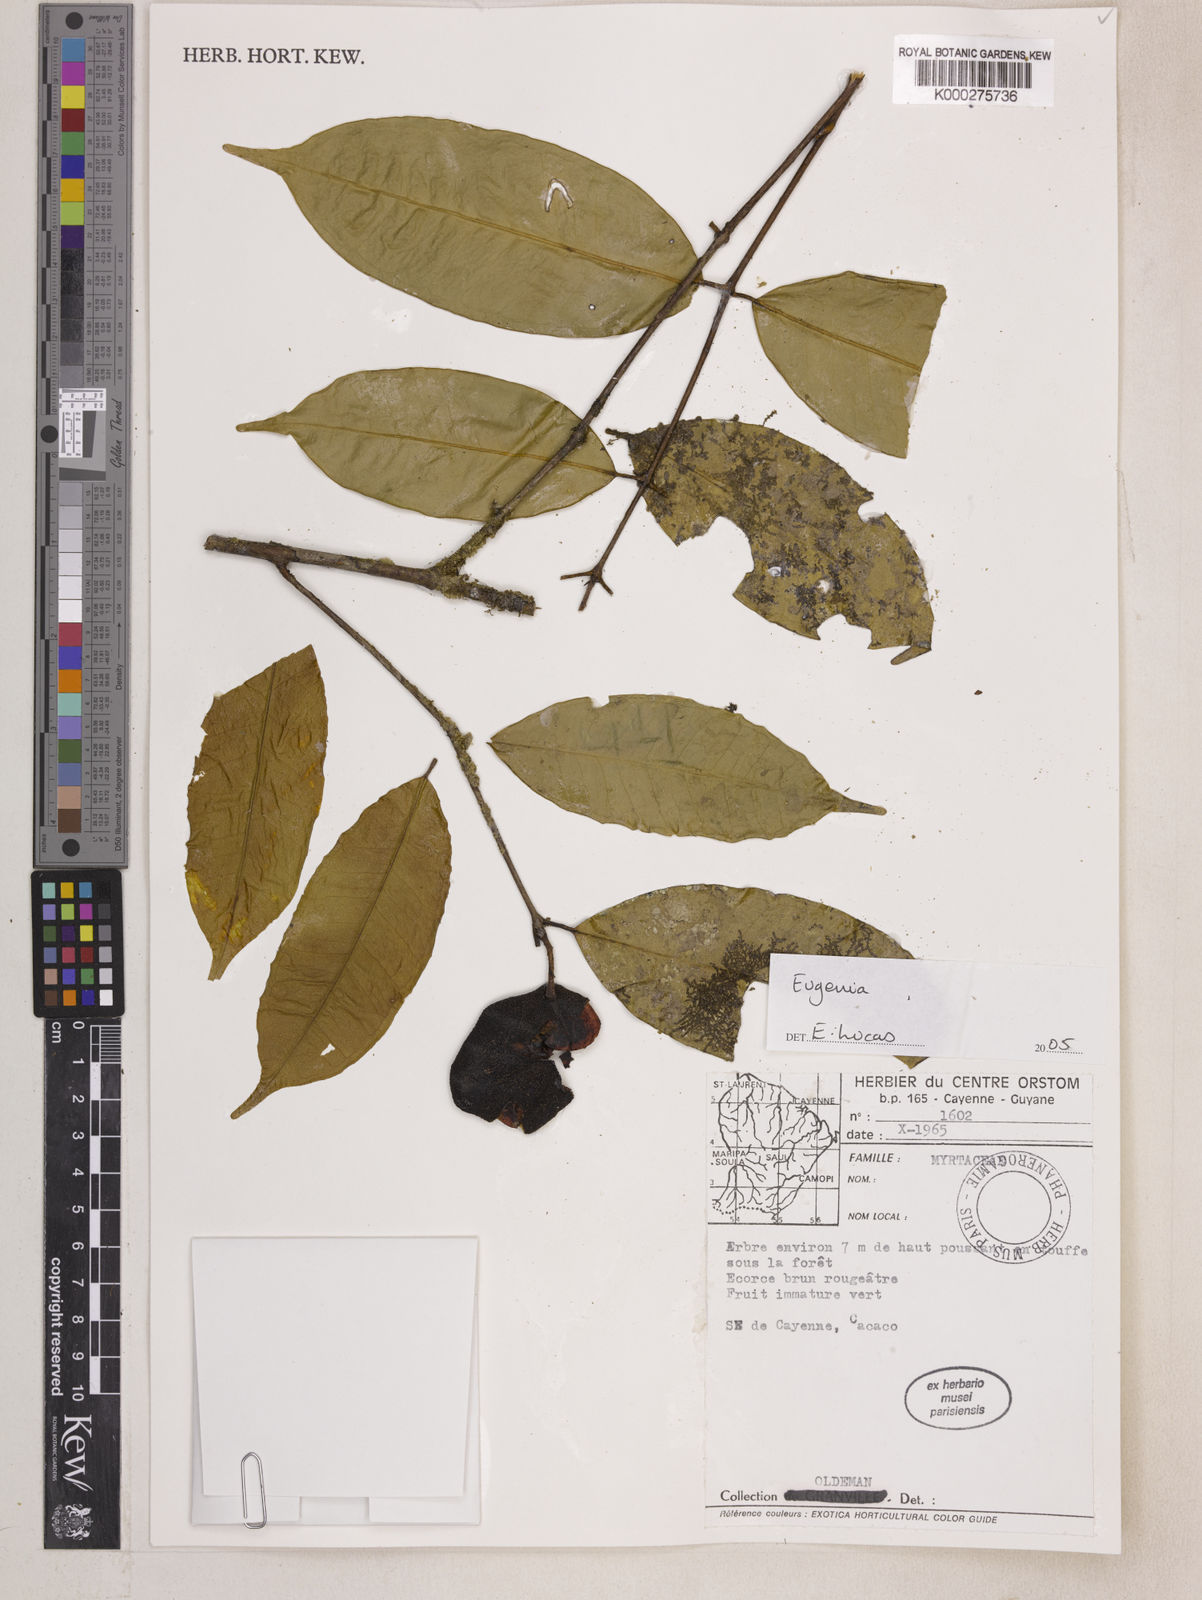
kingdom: Plantae
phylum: Tracheophyta
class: Magnoliopsida
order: Myrtales
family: Myrtaceae
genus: Eugenia
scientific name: Eugenia wentii
